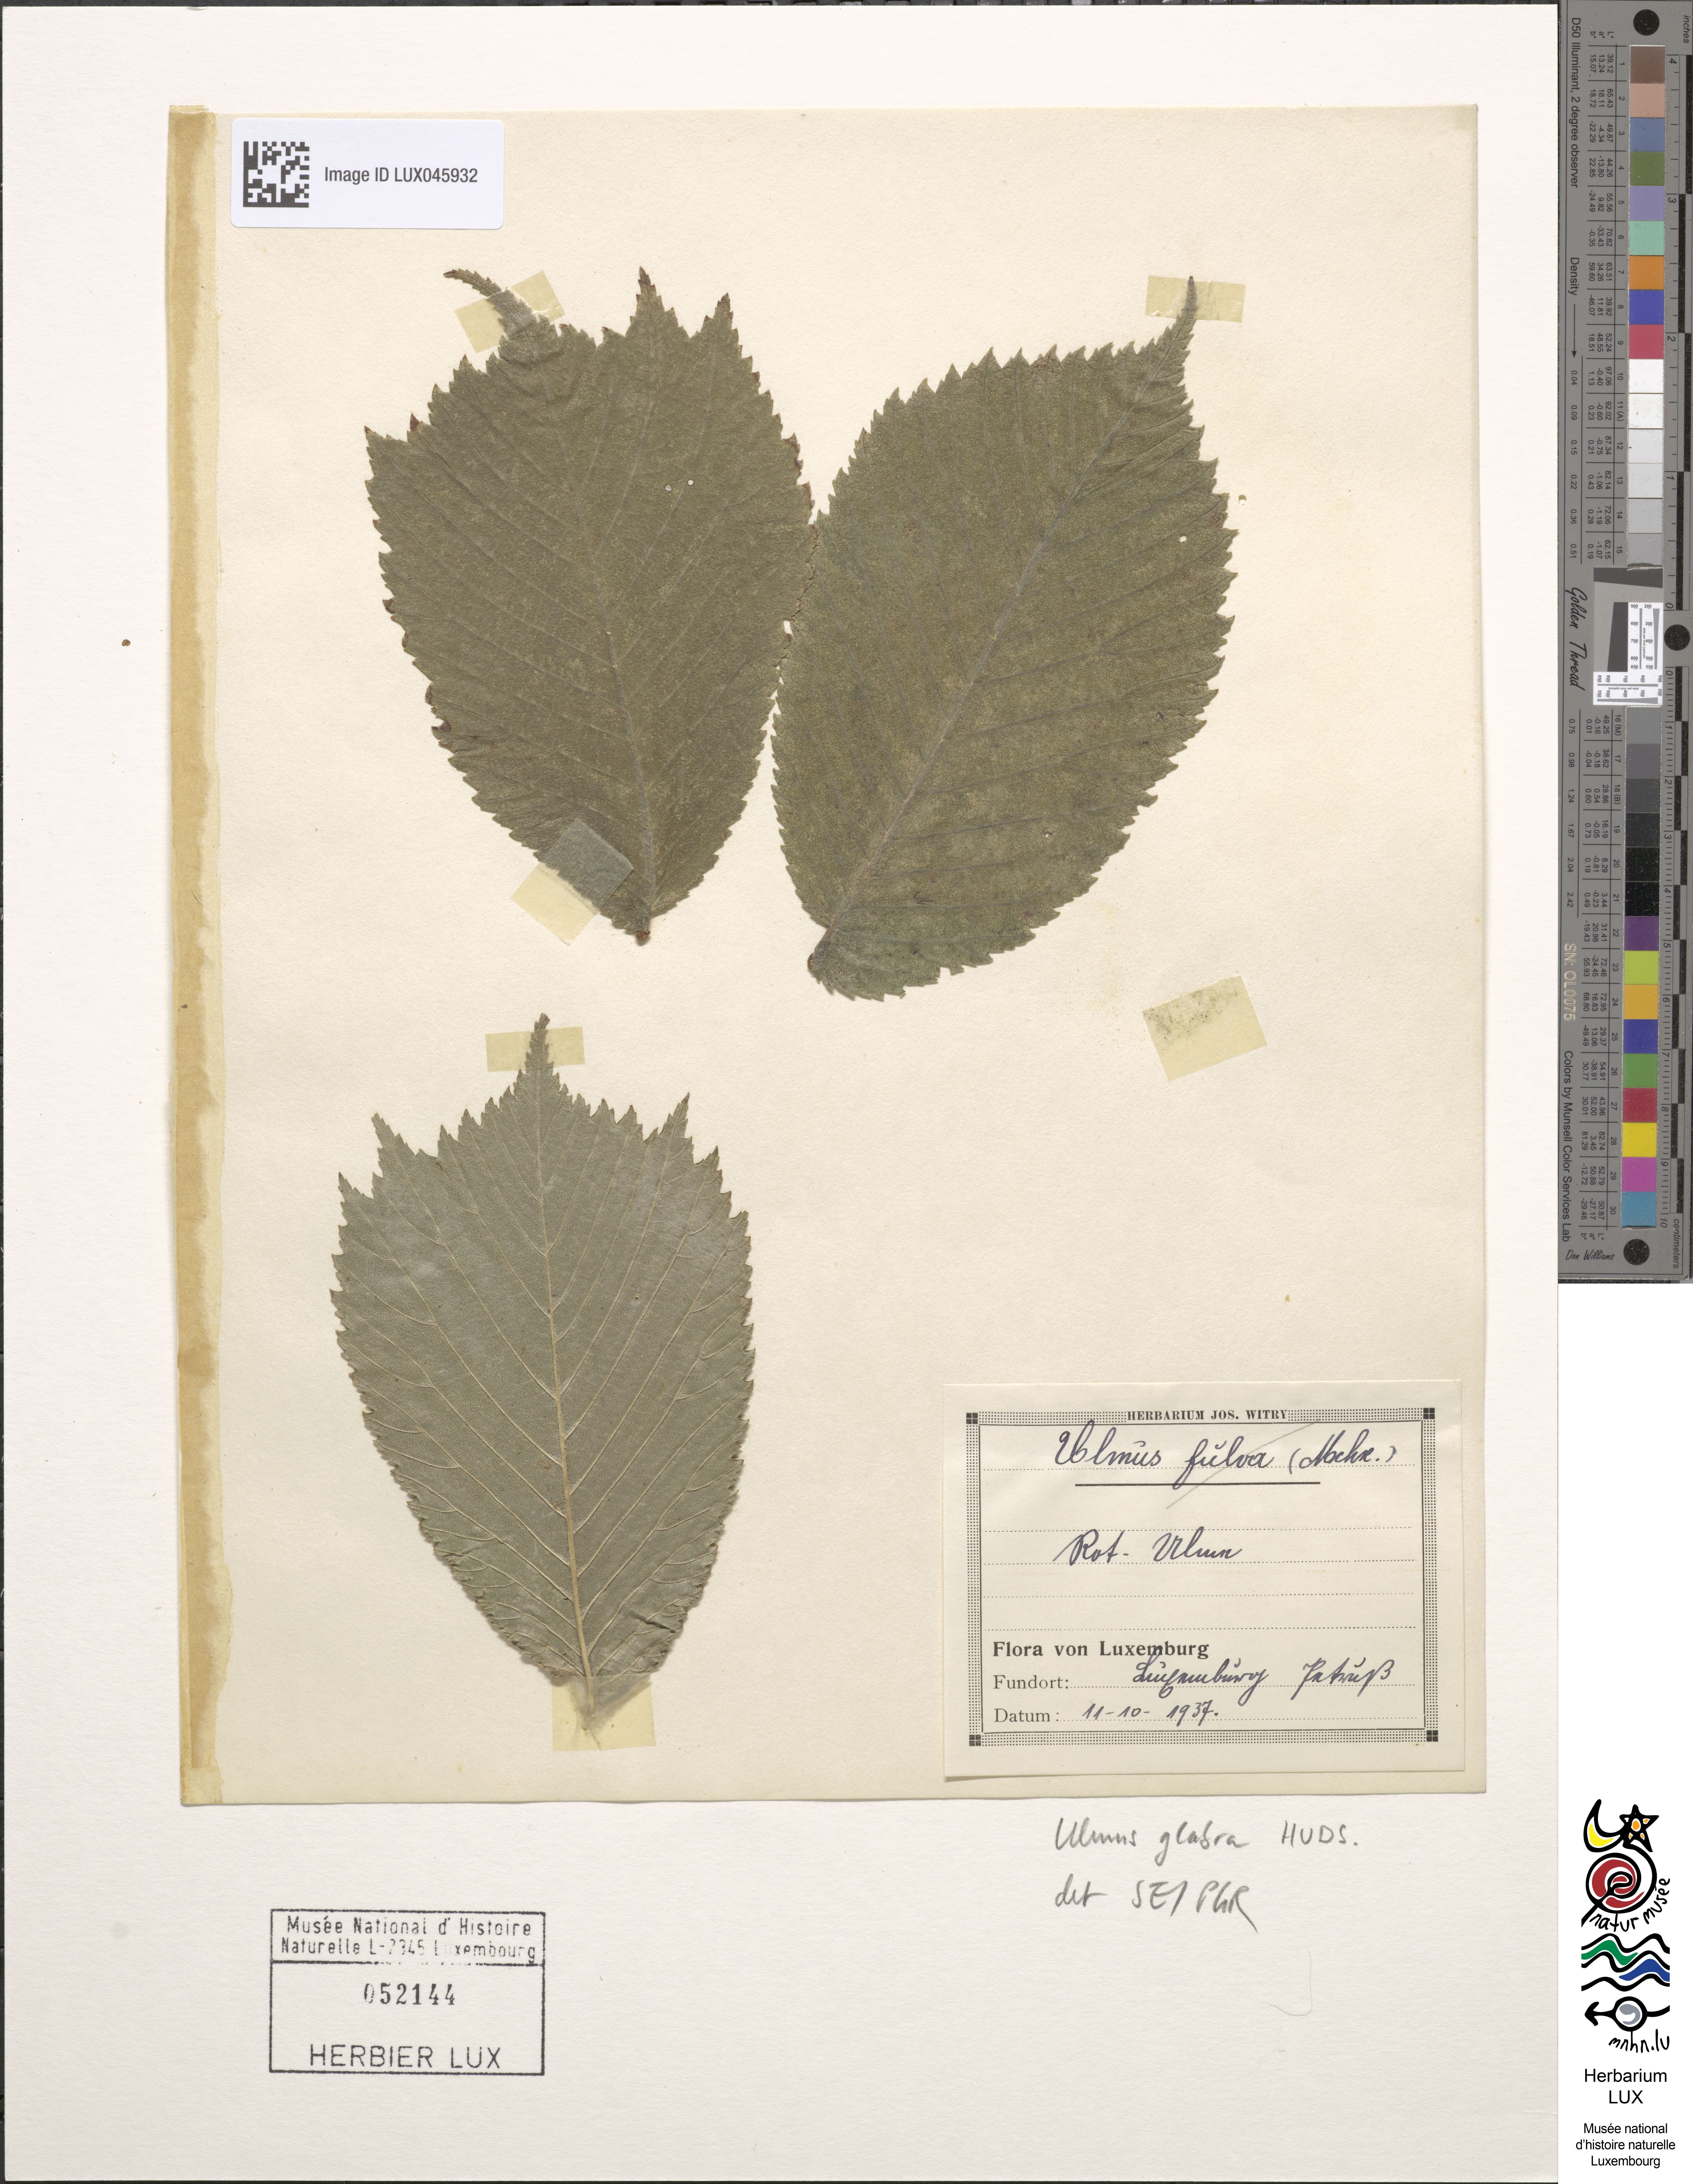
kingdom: Plantae
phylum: Tracheophyta
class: Magnoliopsida
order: Rosales
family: Ulmaceae
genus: Ulmus
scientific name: Ulmus glabra
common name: Wych elm
